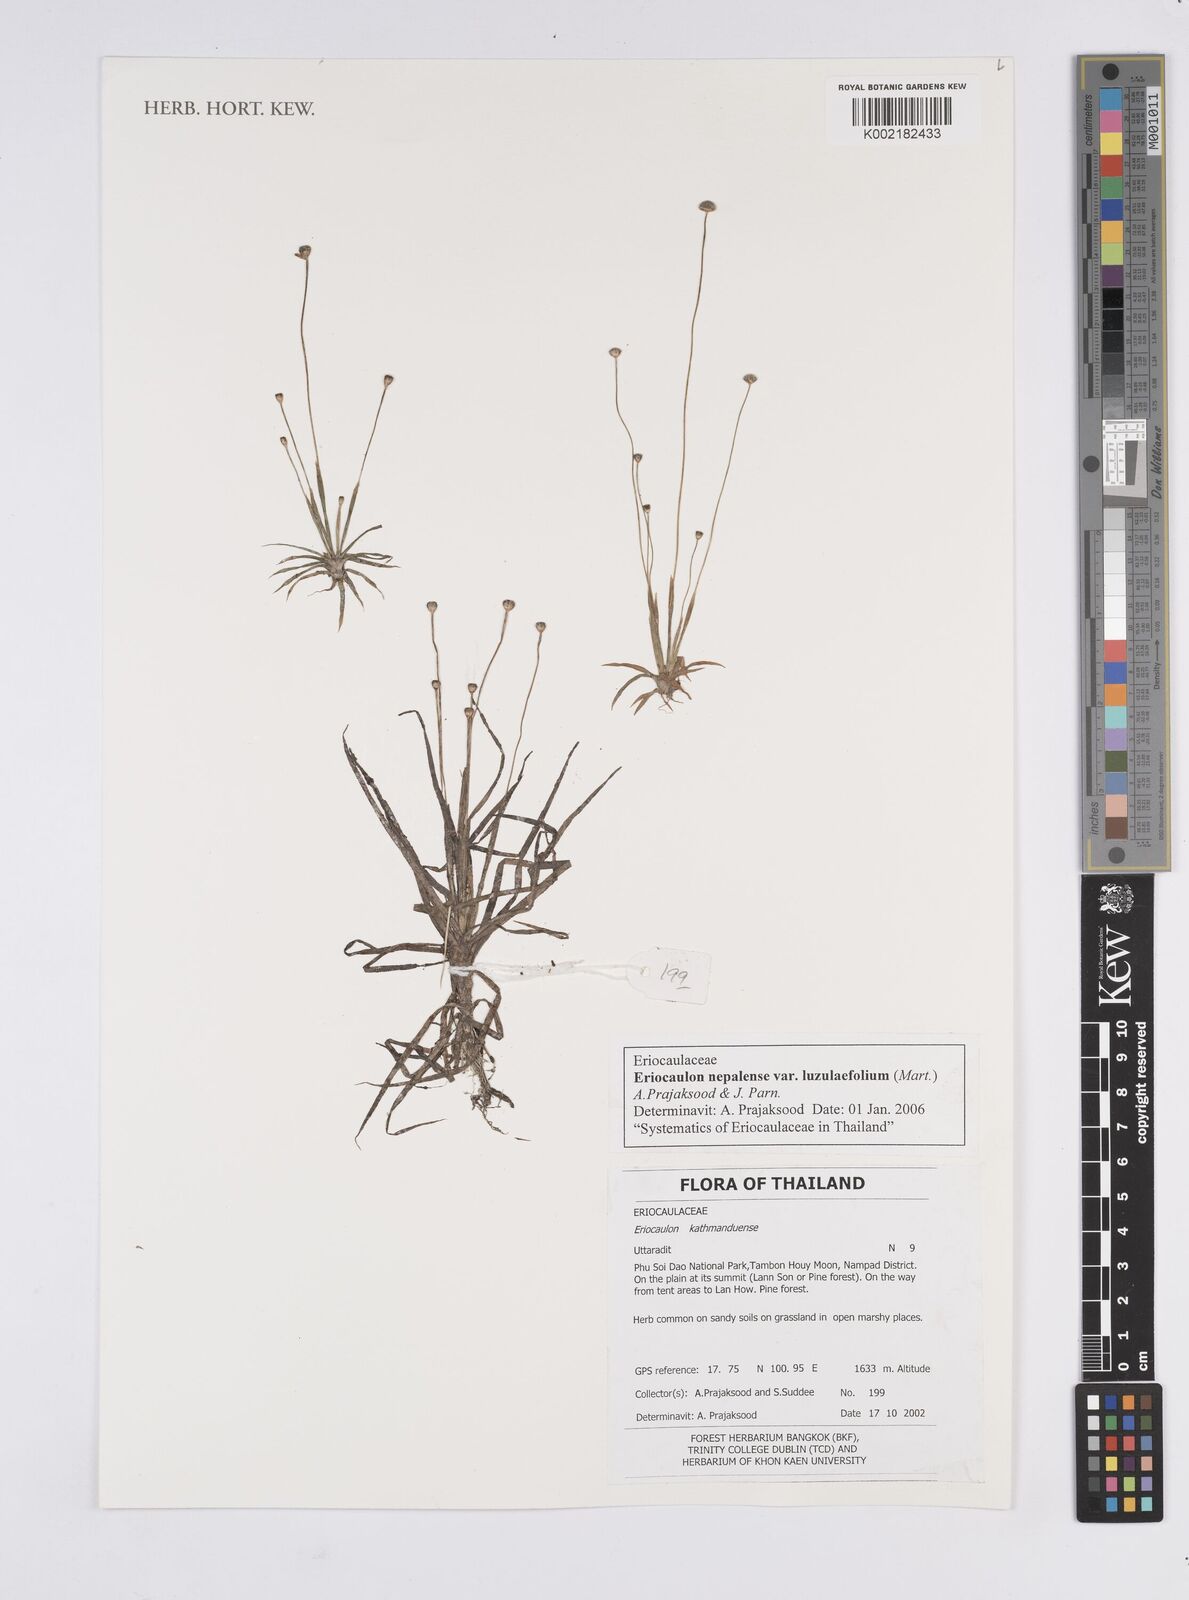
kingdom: Plantae
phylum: Tracheophyta
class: Liliopsida
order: Poales
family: Eriocaulaceae
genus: Eriocaulon
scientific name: Eriocaulon nepalense
